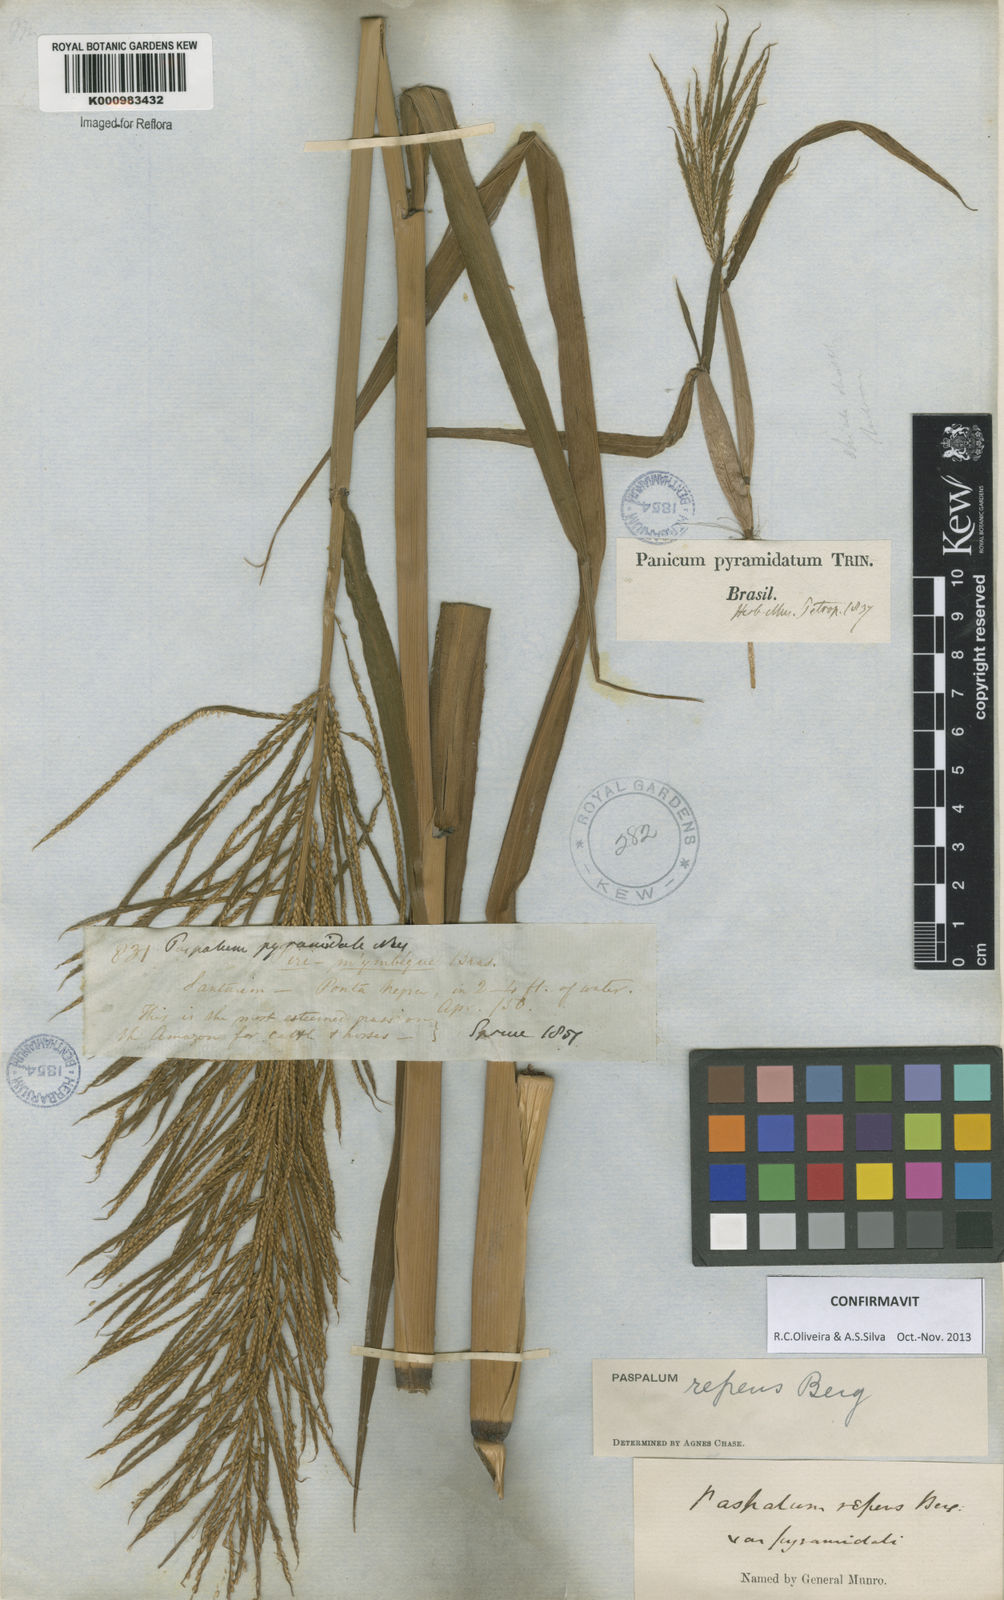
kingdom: Plantae
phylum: Tracheophyta
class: Liliopsida
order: Poales
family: Poaceae
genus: Paspalum
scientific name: Paspalum repens
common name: Water paspalum
